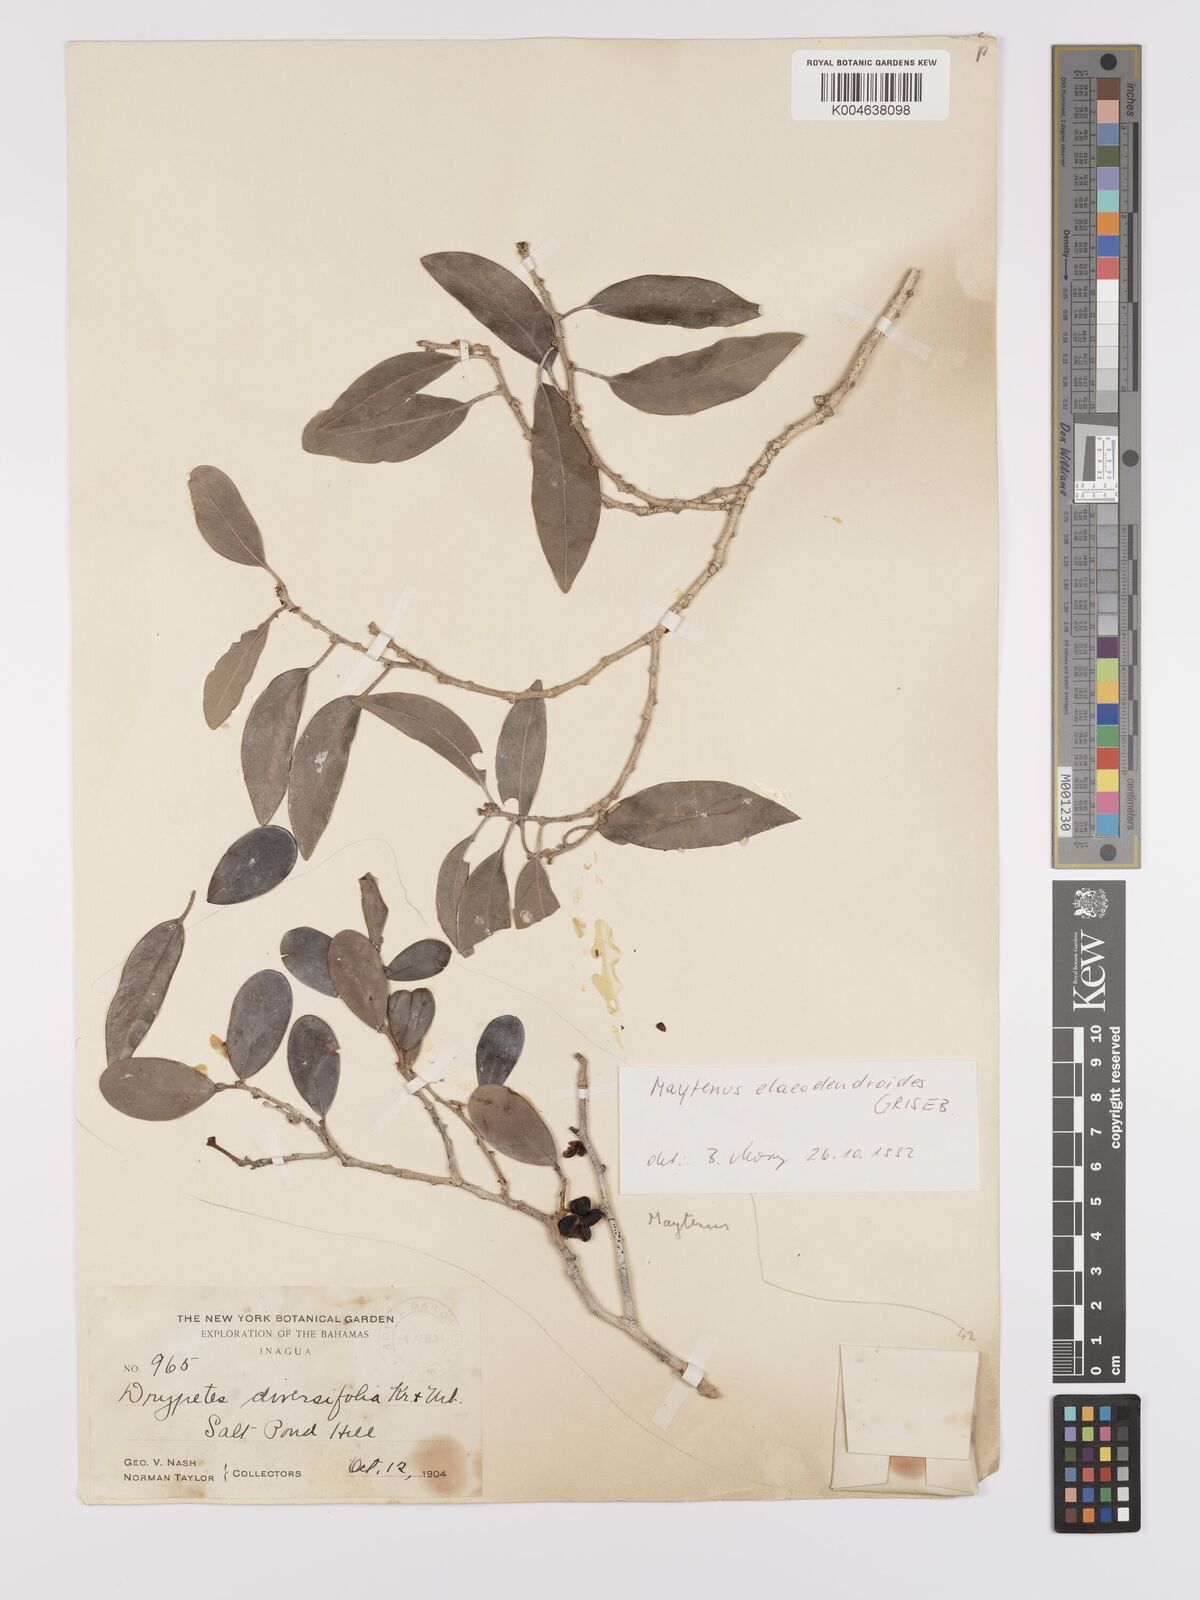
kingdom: Plantae
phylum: Tracheophyta
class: Magnoliopsida
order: Celastrales
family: Celastraceae
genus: Maytenus
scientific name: Maytenus
